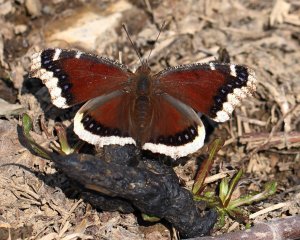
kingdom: Animalia
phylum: Arthropoda
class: Insecta
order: Lepidoptera
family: Nymphalidae
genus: Nymphalis
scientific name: Nymphalis antiopa
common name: Mourning Cloak
